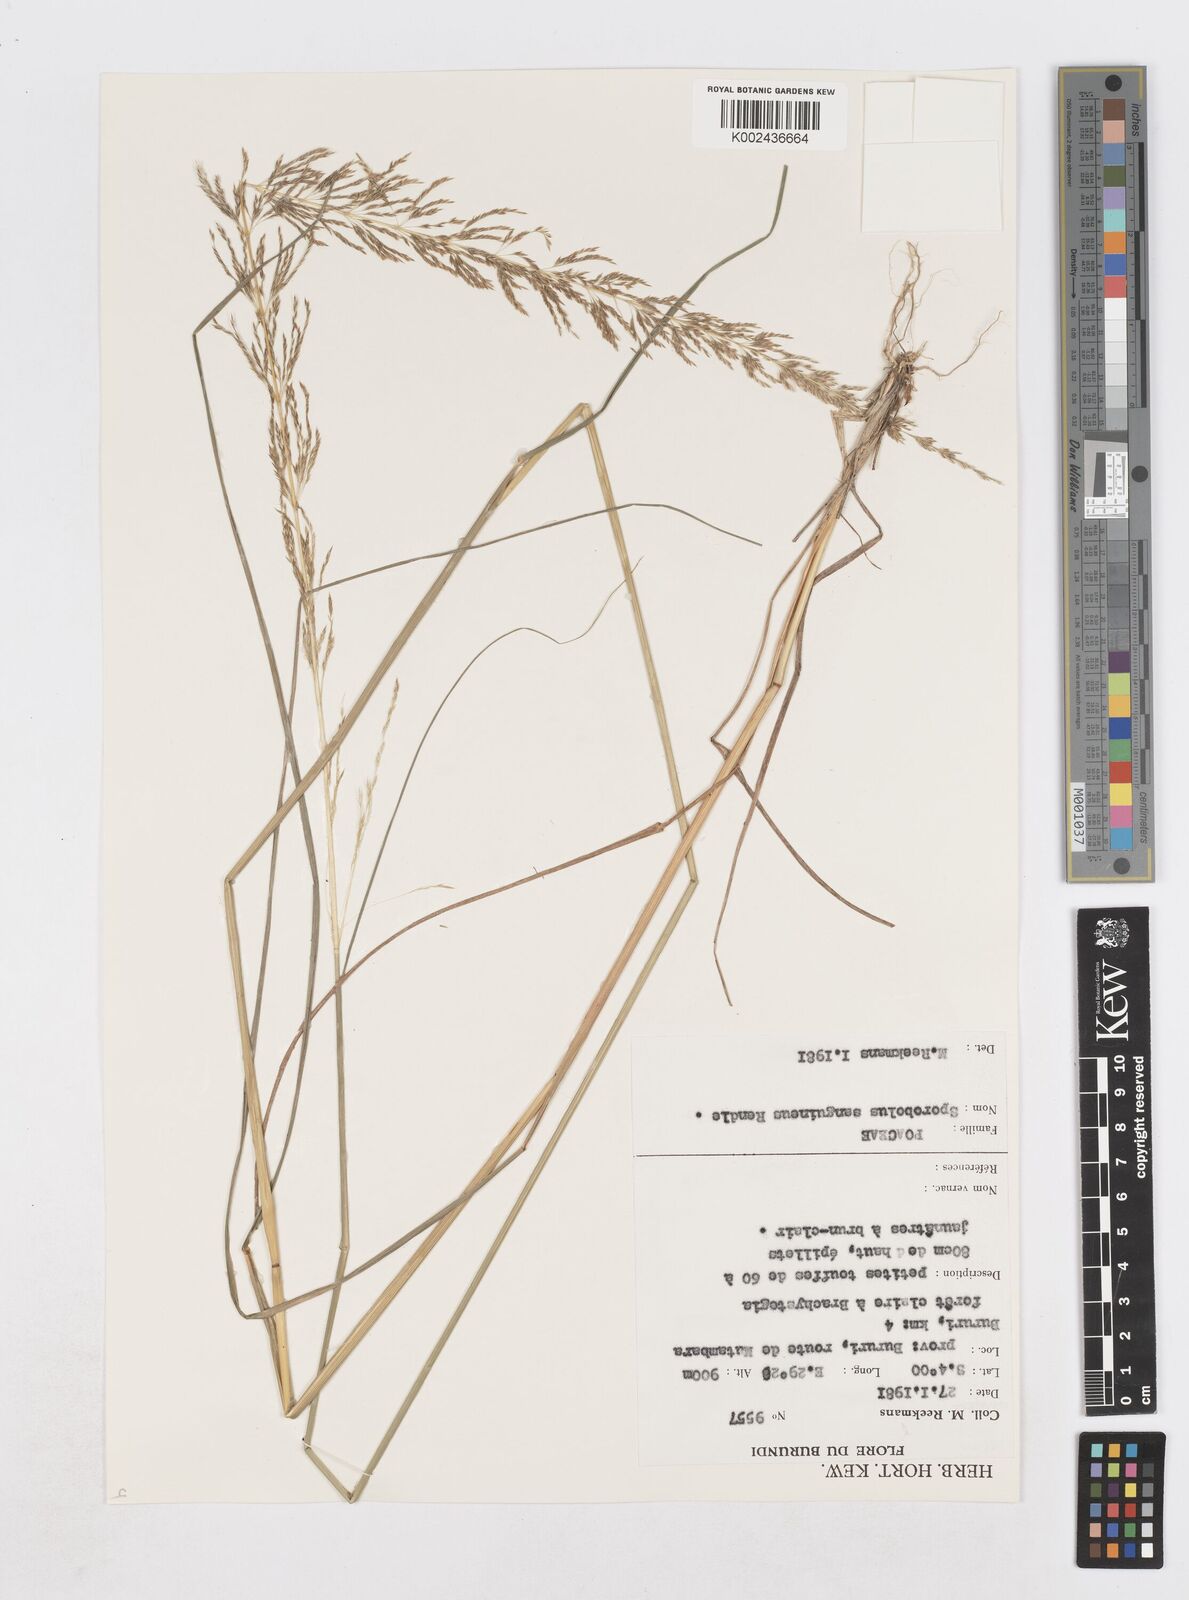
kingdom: Plantae
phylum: Tracheophyta
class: Liliopsida
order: Poales
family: Poaceae
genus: Sporobolus
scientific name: Sporobolus sanguineus
